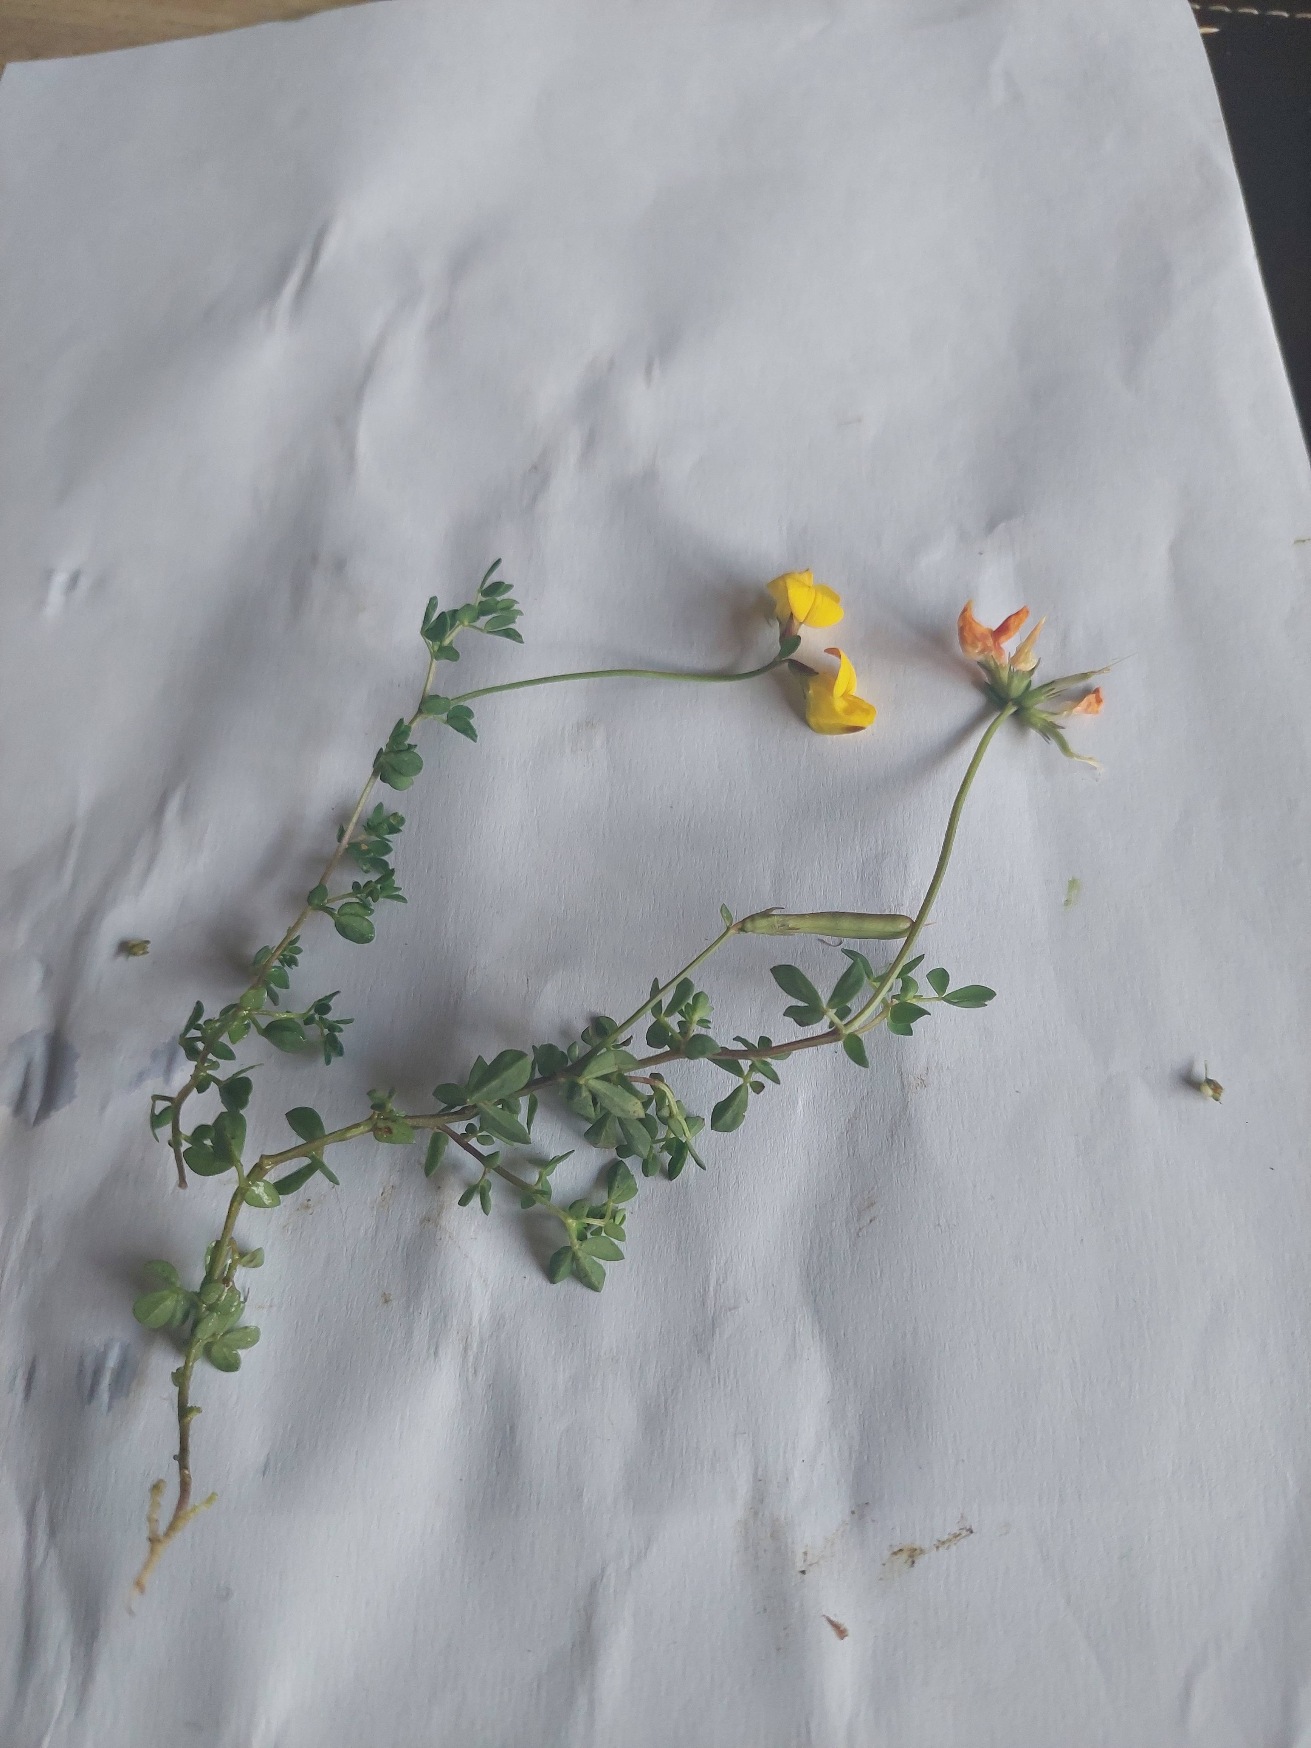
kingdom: Plantae
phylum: Tracheophyta
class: Magnoliopsida
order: Fabales
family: Fabaceae
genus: Lotus
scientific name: Lotus corniculatus
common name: Almindelig kællingetand
